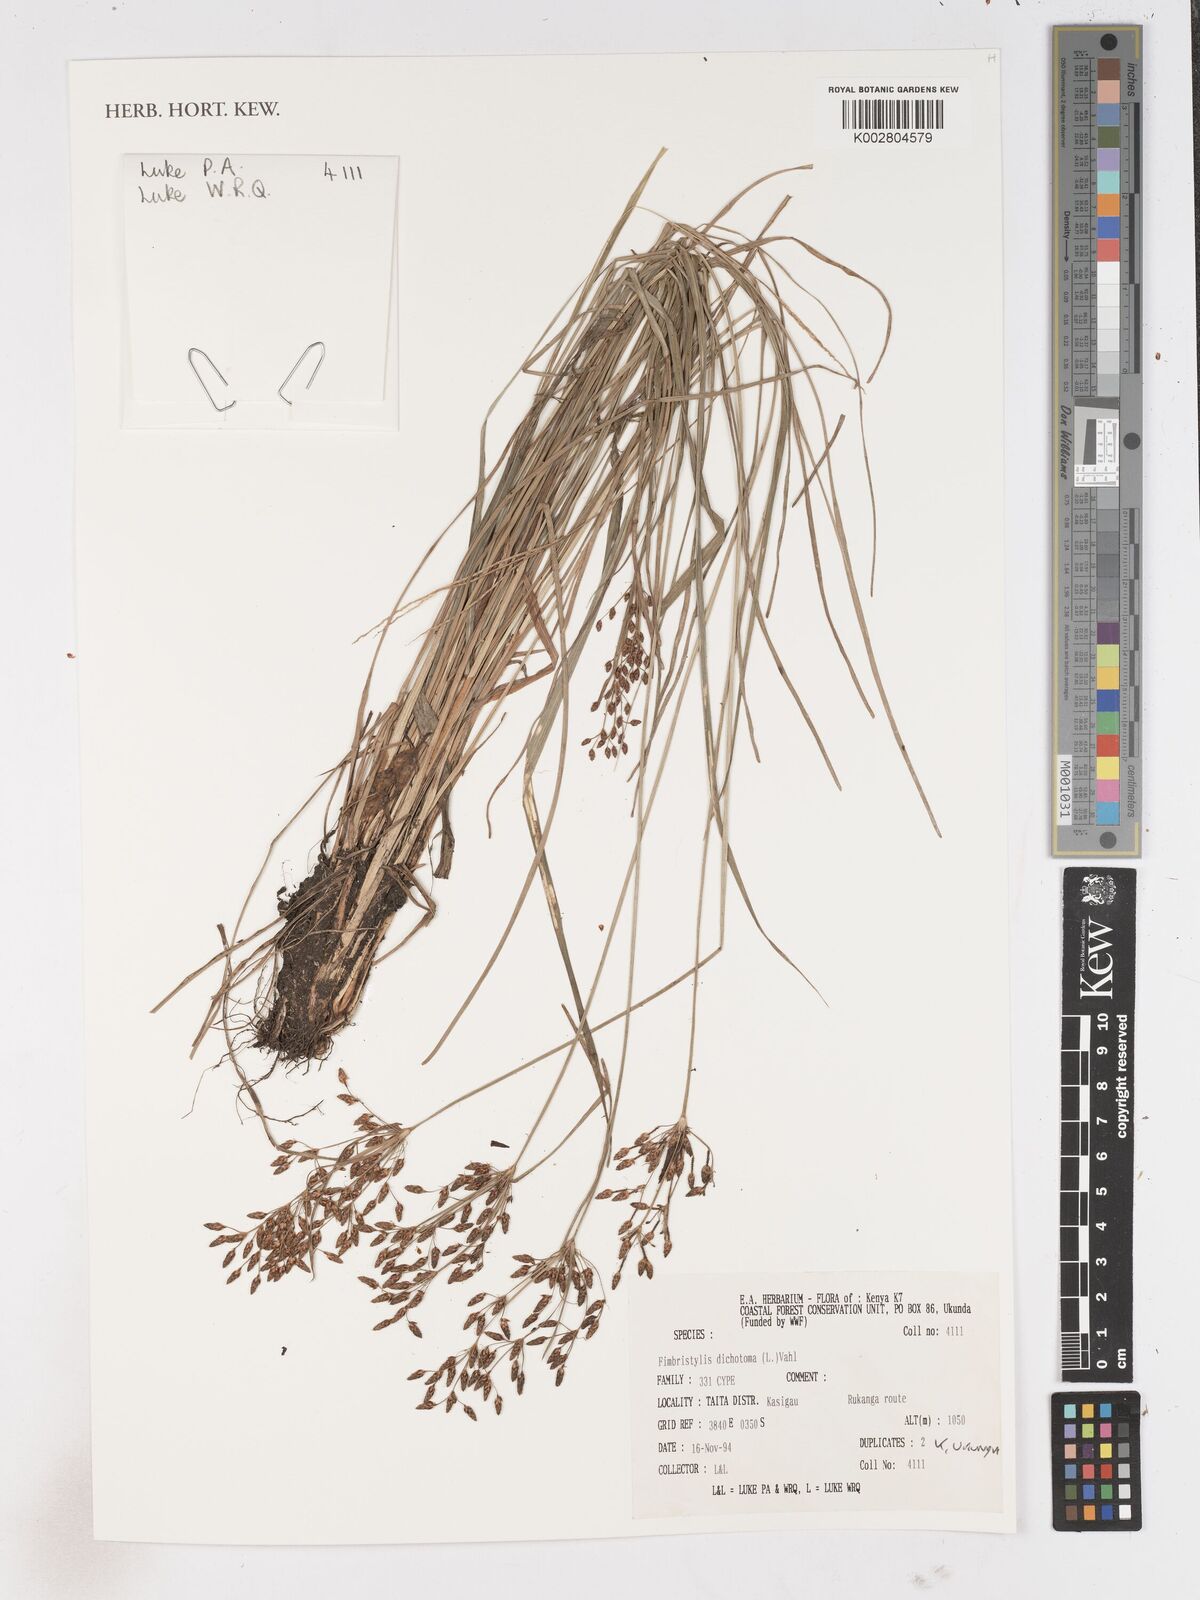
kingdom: Plantae
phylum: Tracheophyta
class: Liliopsida
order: Poales
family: Cyperaceae
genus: Fimbristylis
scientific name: Fimbristylis dichotoma
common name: Forked fimbry
